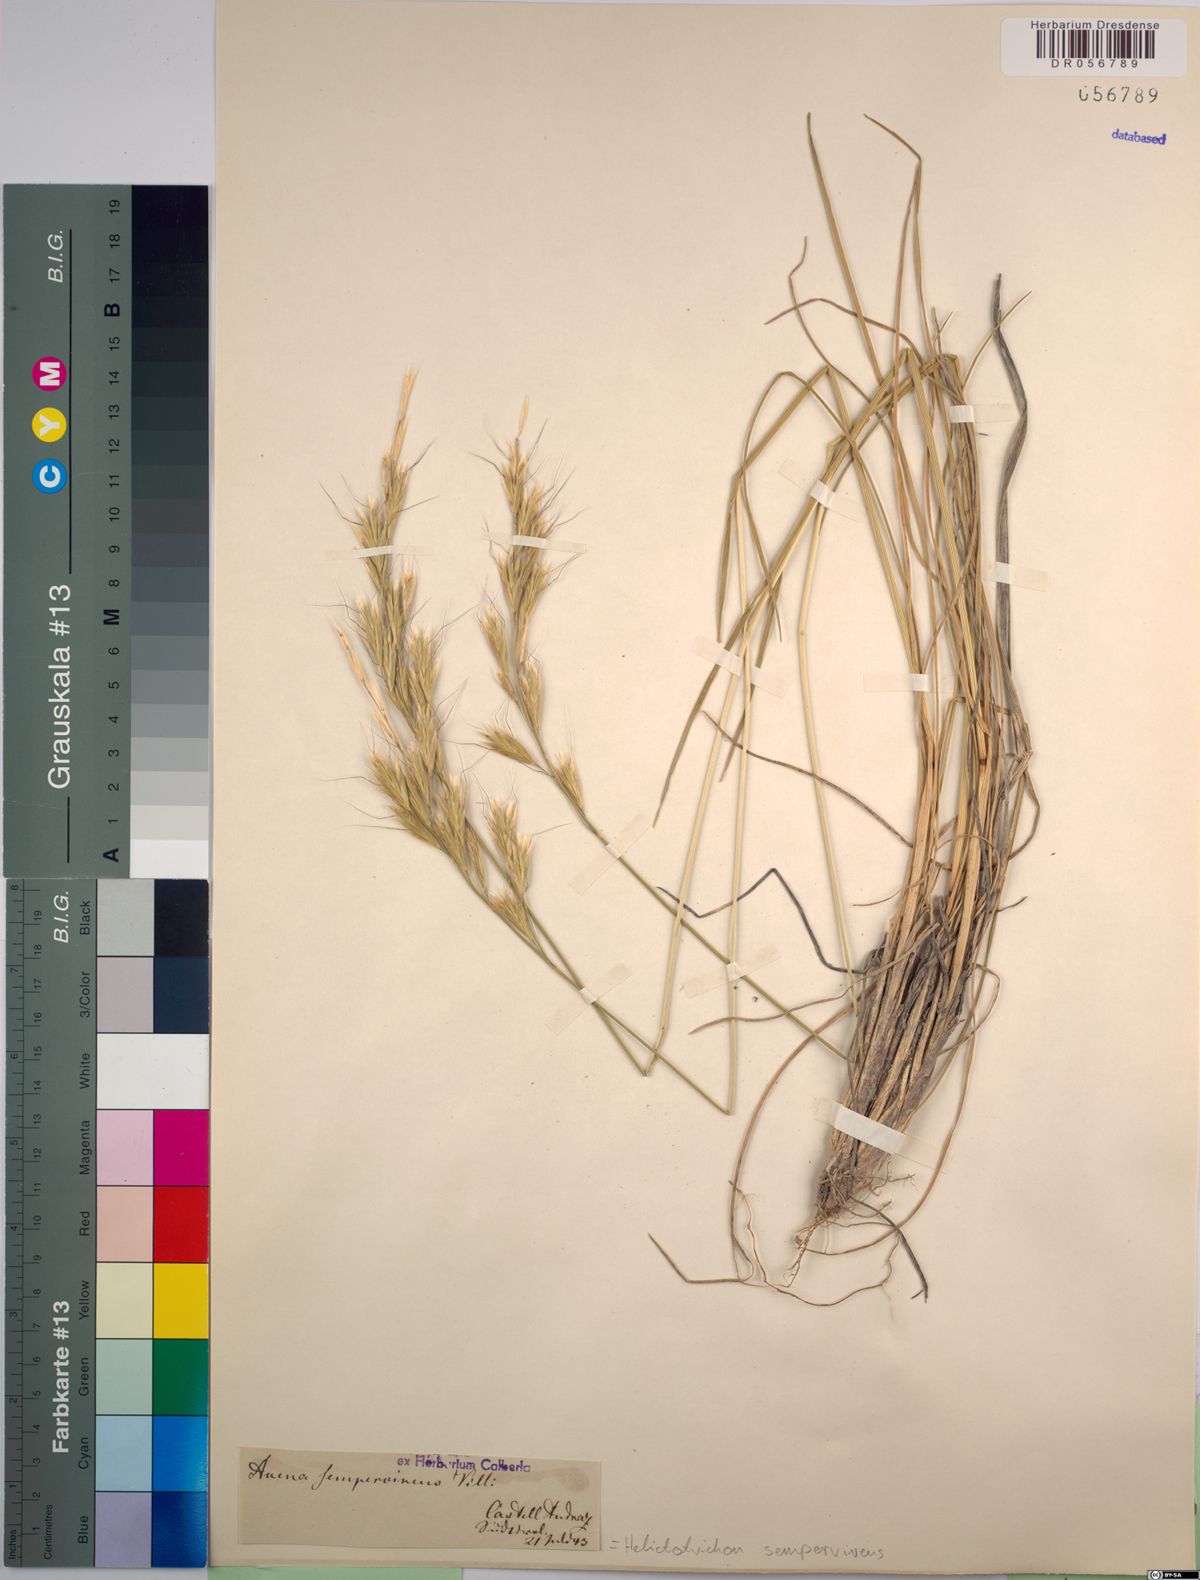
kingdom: Plantae
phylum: Tracheophyta
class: Liliopsida
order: Poales
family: Poaceae
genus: Helictotrichon
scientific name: Helictotrichon sempervirens
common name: Blue oat-grass
